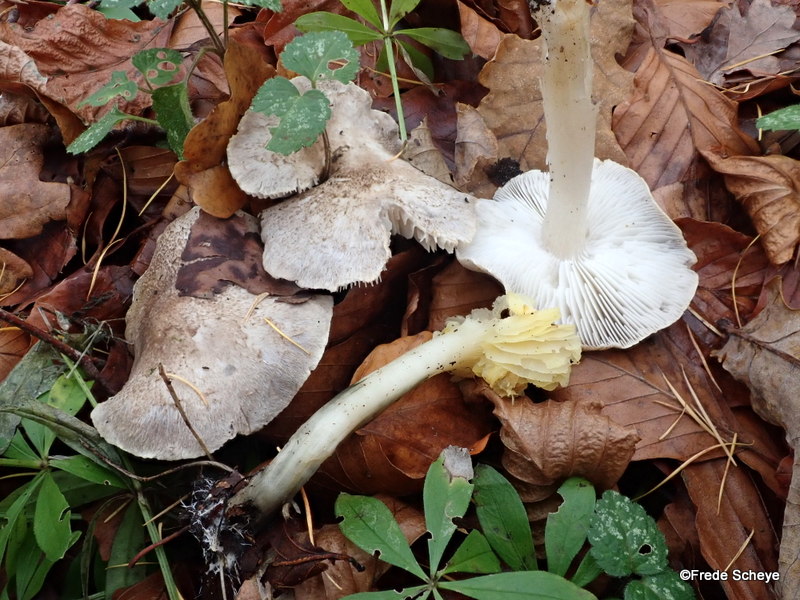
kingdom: Fungi
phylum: Basidiomycota
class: Agaricomycetes
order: Agaricales
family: Tricholomataceae
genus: Tricholoma
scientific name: Tricholoma scalpturatum
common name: gulplettet ridderhat
